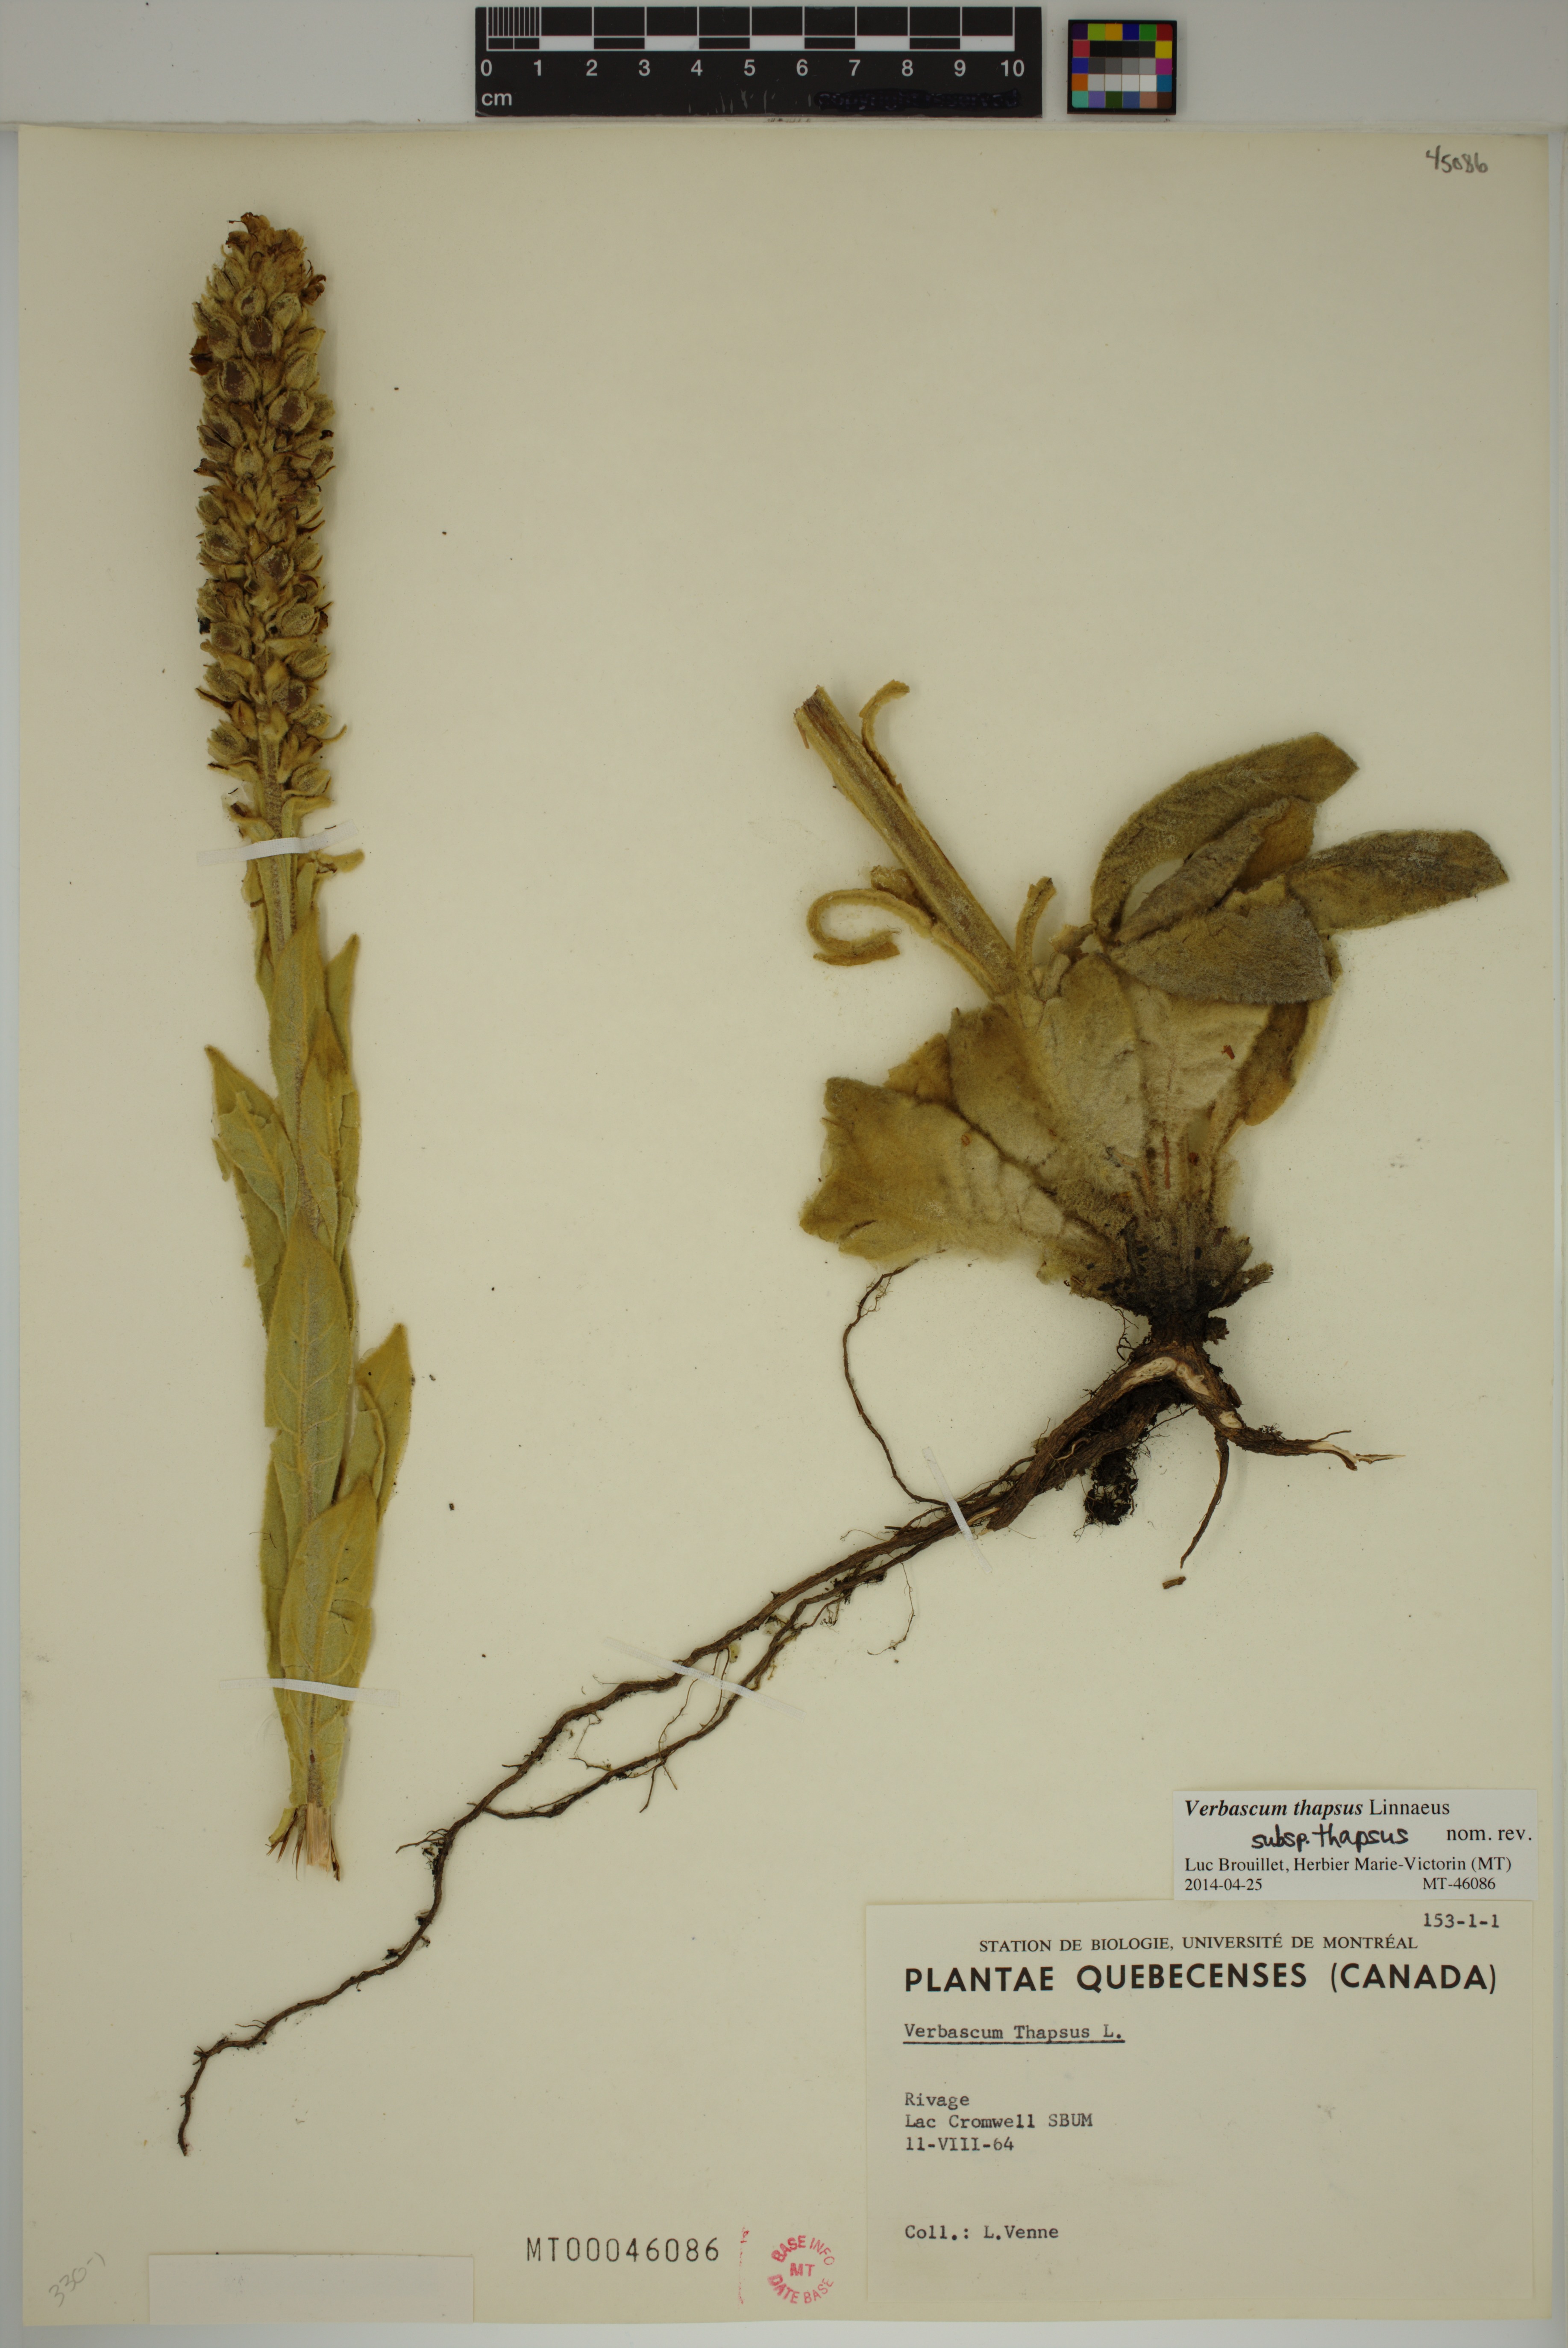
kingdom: Plantae
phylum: Tracheophyta
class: Magnoliopsida
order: Lamiales
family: Scrophulariaceae
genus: Verbascum
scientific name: Verbascum thapsus
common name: Common mullein
